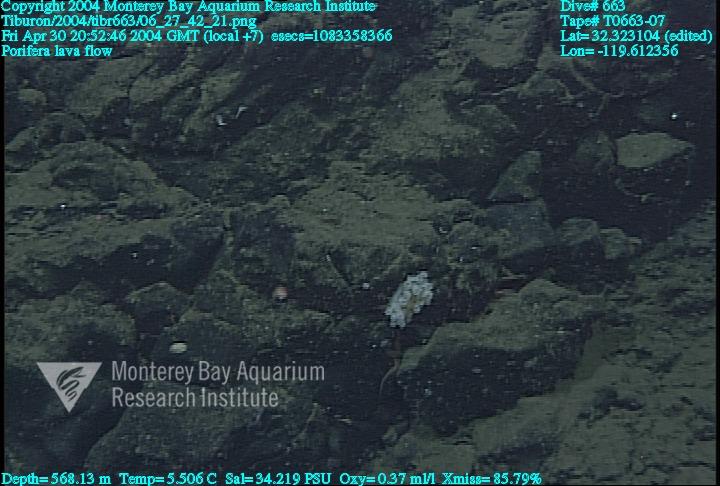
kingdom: Animalia
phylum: Porifera
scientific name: Porifera
